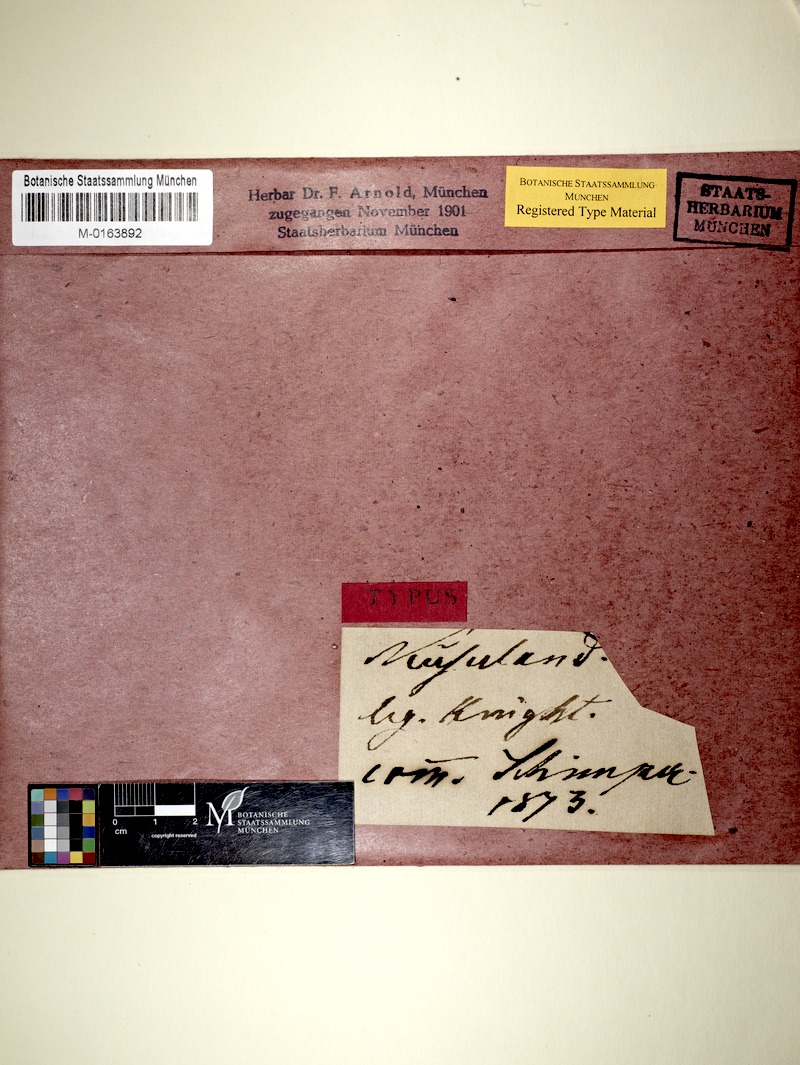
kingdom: Fungi
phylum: Ascomycota
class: Arthoniomycetes
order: Arthoniales
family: Arthoniaceae
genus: Arthothelium
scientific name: Arthothelium infuscatum
